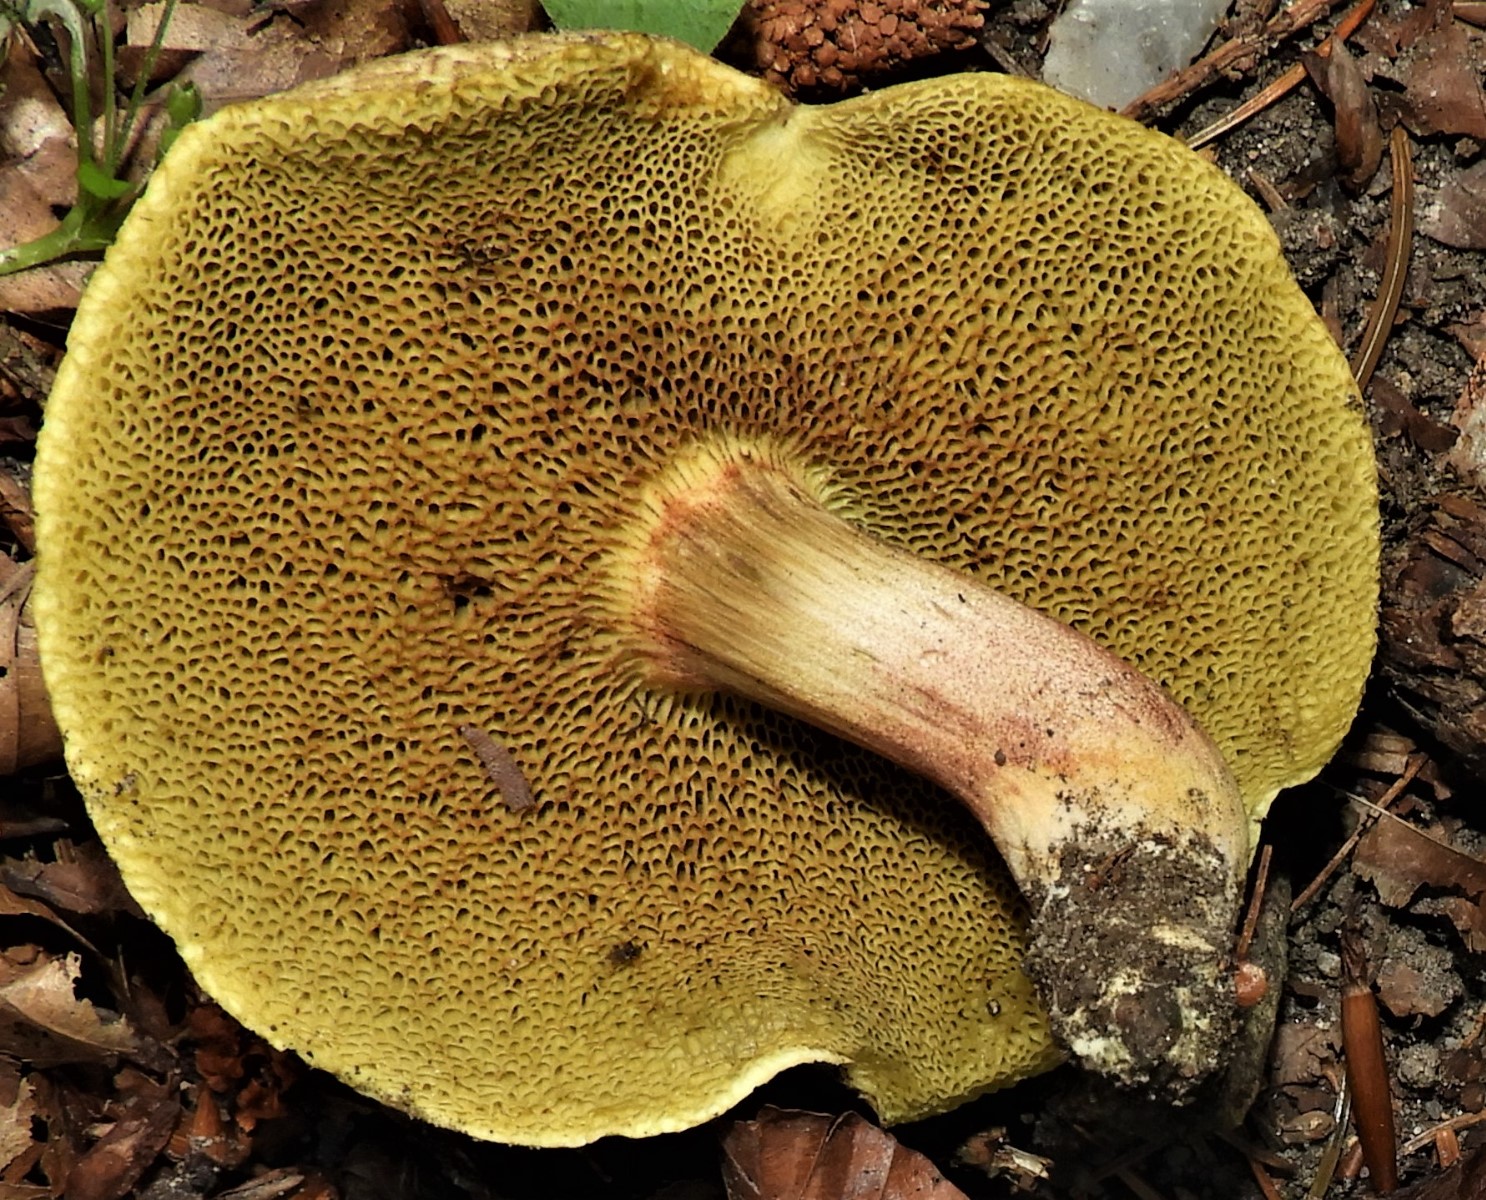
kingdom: Fungi
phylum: Basidiomycota
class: Agaricomycetes
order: Boletales
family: Boletaceae
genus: Xerocomellus
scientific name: Xerocomellus chrysenteron
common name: rødsprukken rørhat
